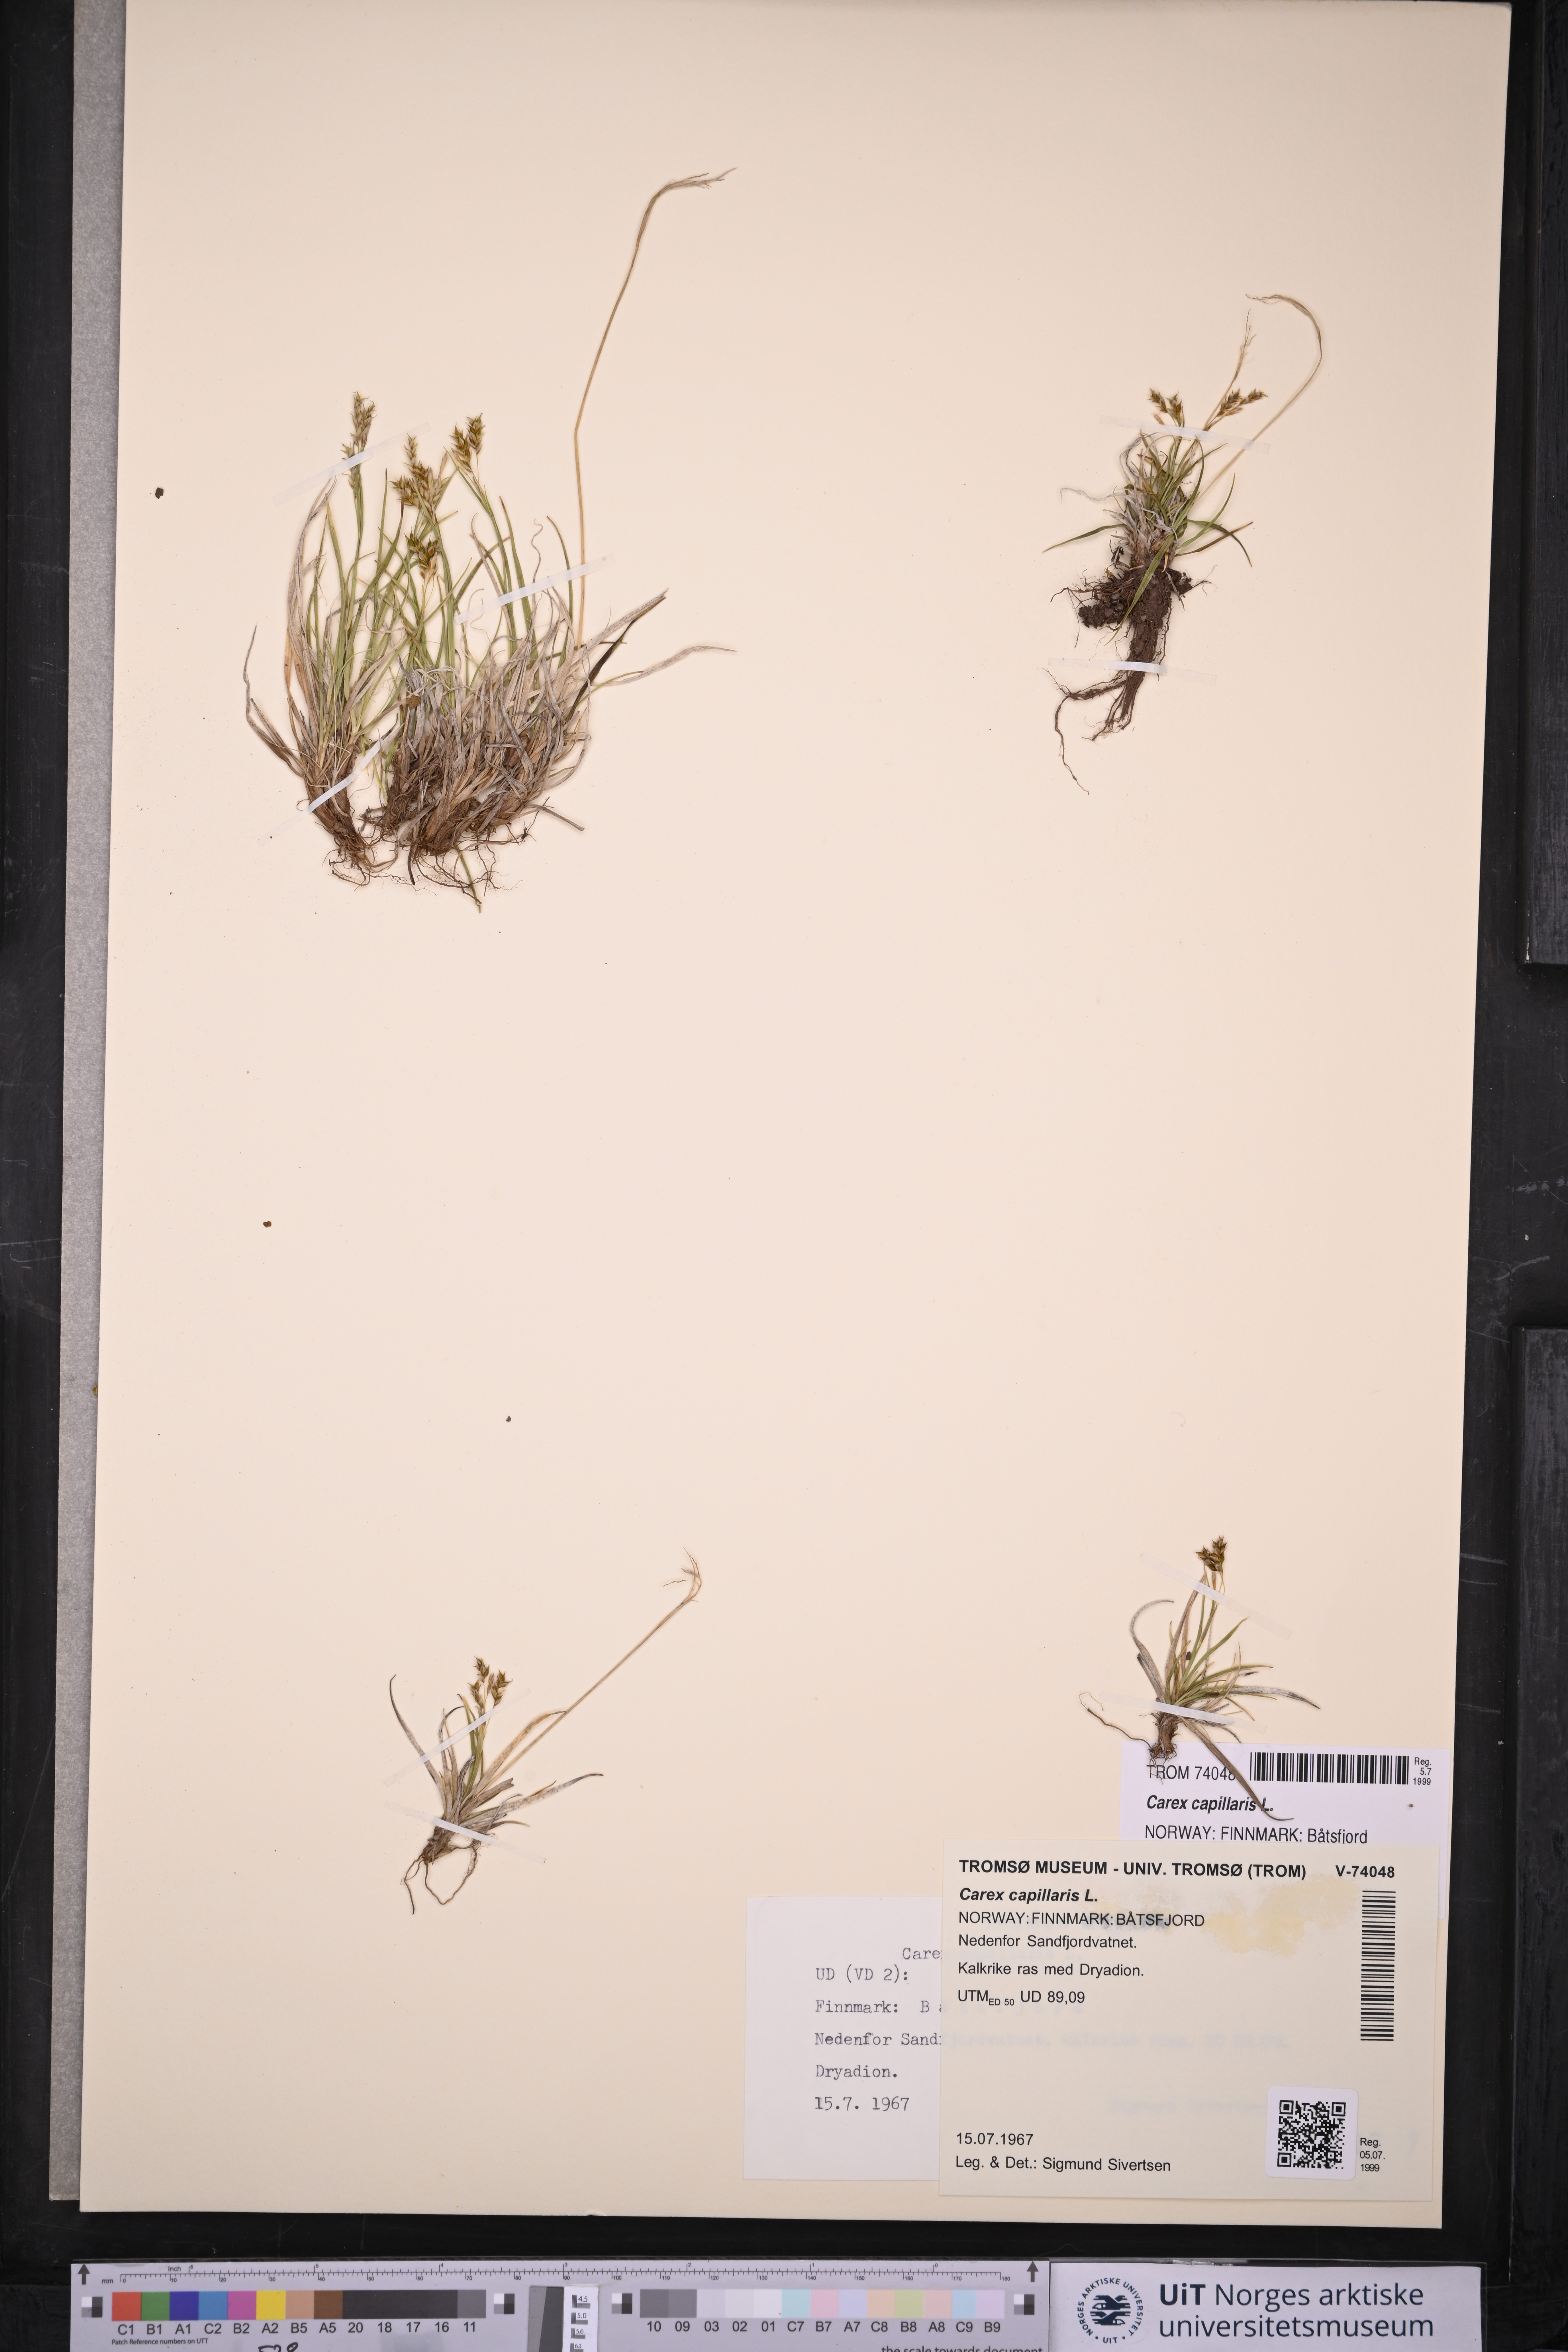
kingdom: Plantae
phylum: Tracheophyta
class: Liliopsida
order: Poales
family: Cyperaceae
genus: Carex
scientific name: Carex capillaris
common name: Hair sedge
